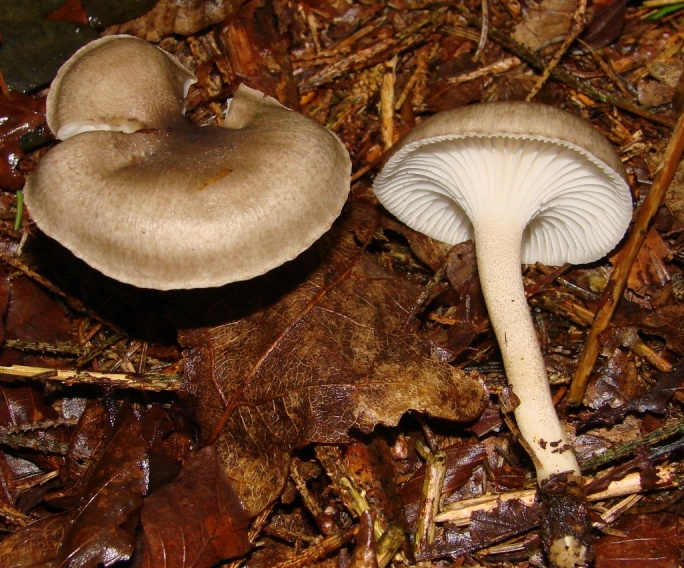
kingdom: Fungi
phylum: Basidiomycota
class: Agaricomycetes
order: Agaricales
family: Hygrophoraceae
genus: Hygrophorus
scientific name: Hygrophorus pustulatus
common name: mørkprikket sneglehat
